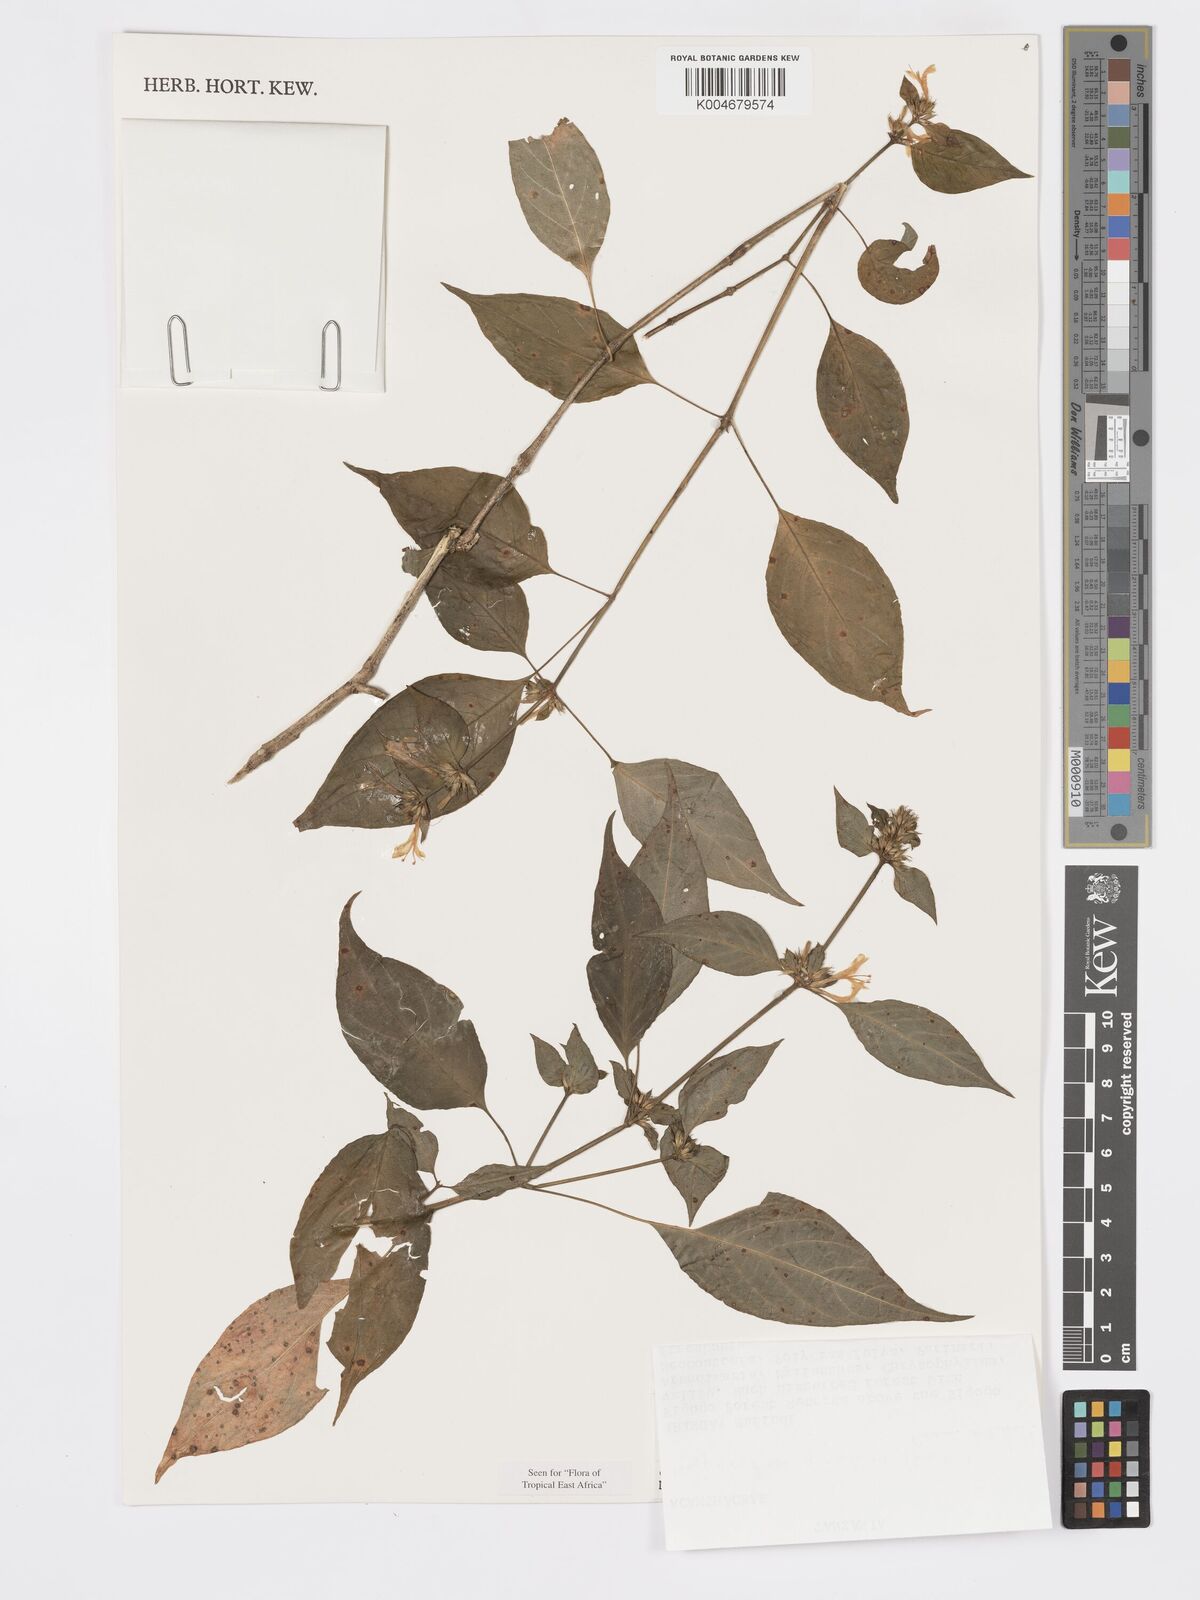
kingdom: Plantae
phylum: Tracheophyta
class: Magnoliopsida
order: Lamiales
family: Acanthaceae
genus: Hypoestes
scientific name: Hypoestes aristata
